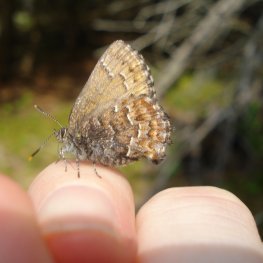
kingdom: Animalia
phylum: Arthropoda
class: Insecta
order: Lepidoptera
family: Lycaenidae
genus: Incisalia
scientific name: Incisalia niphon
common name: Eastern Pine Elfin
